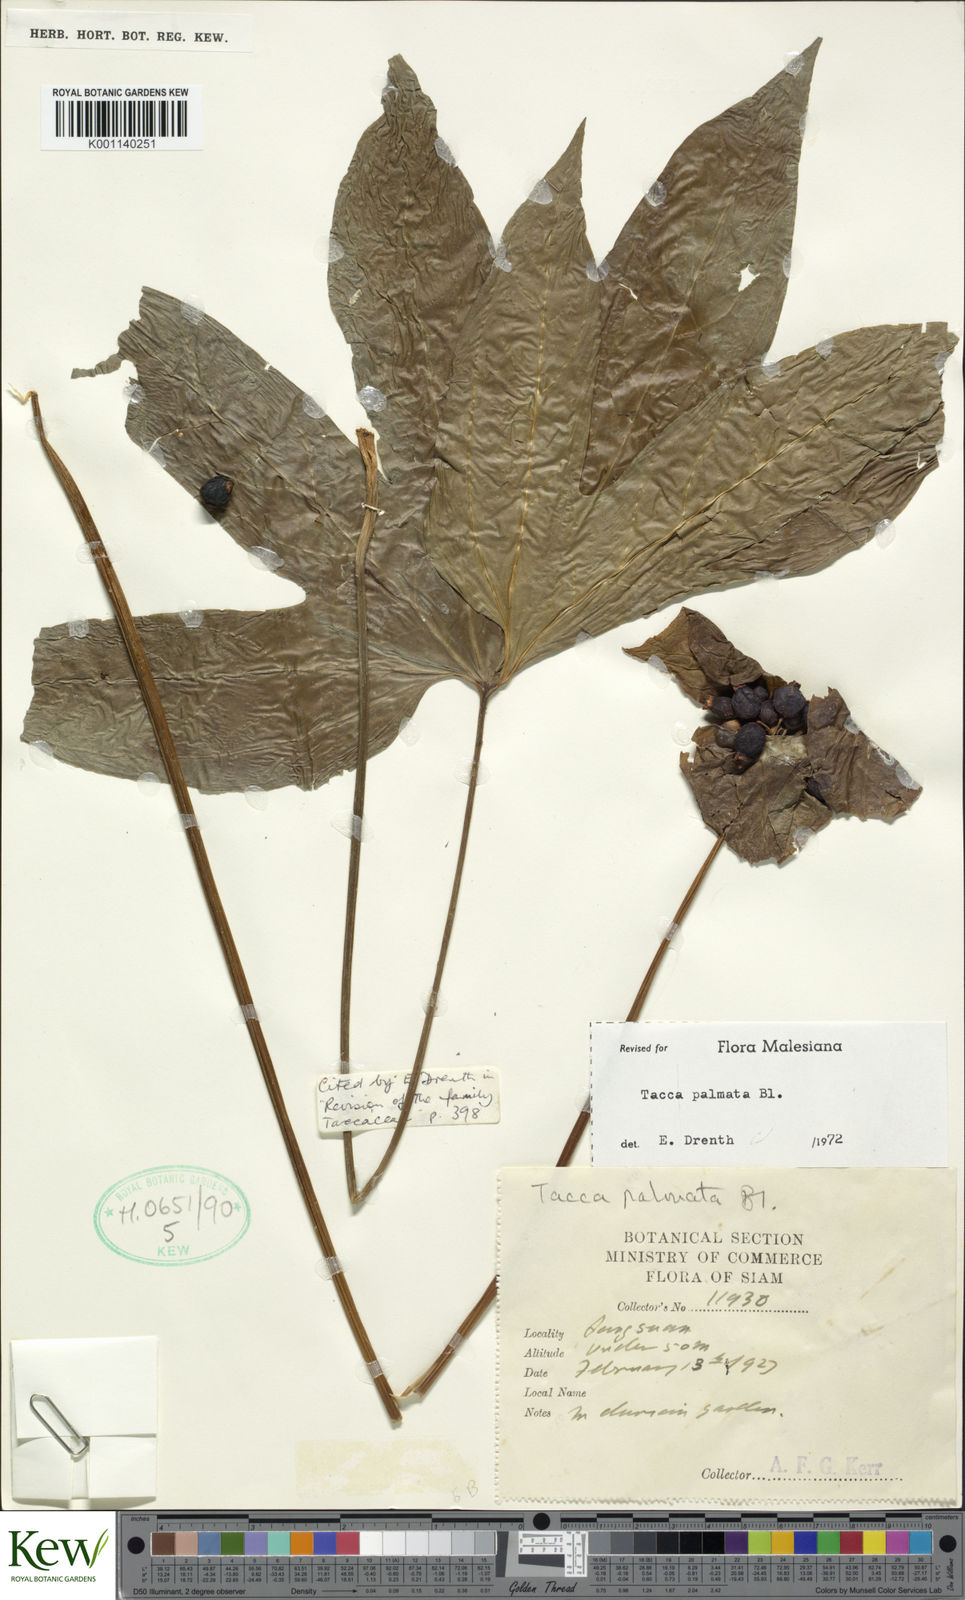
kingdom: Plantae
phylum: Tracheophyta
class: Liliopsida
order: Dioscoreales
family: Dioscoreaceae
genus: Tacca
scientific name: Tacca palmata
